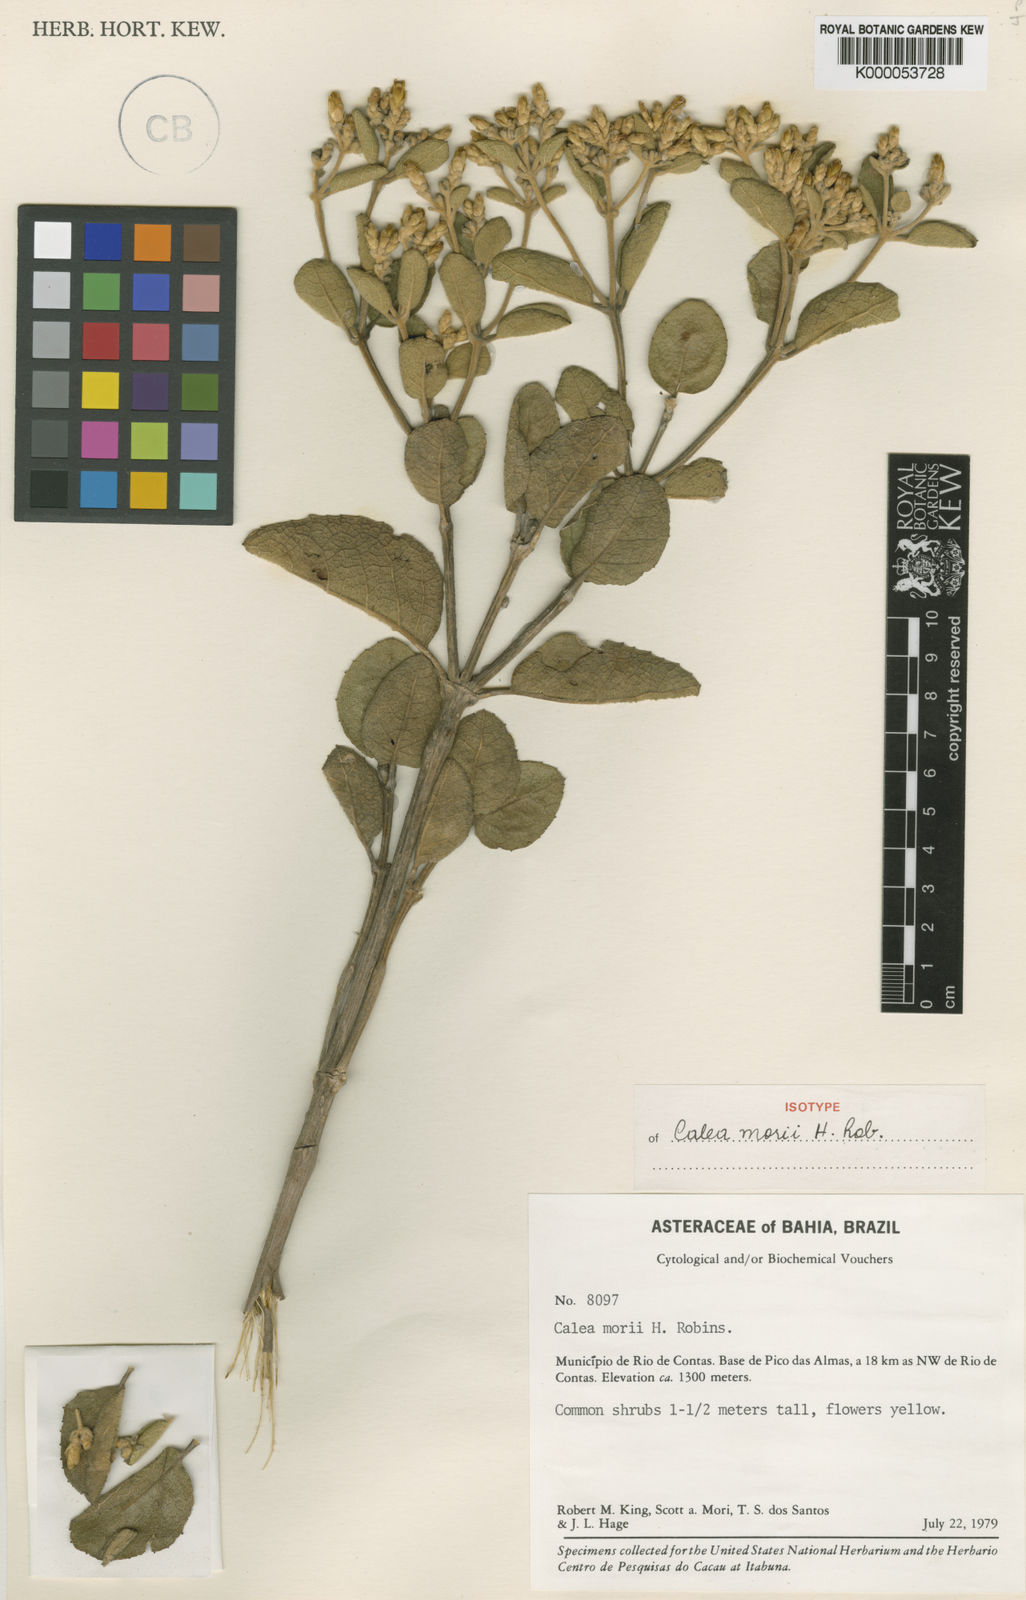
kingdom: Plantae
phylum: Tracheophyta
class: Magnoliopsida
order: Asterales
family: Asteraceae
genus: Calea
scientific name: Calea morii
